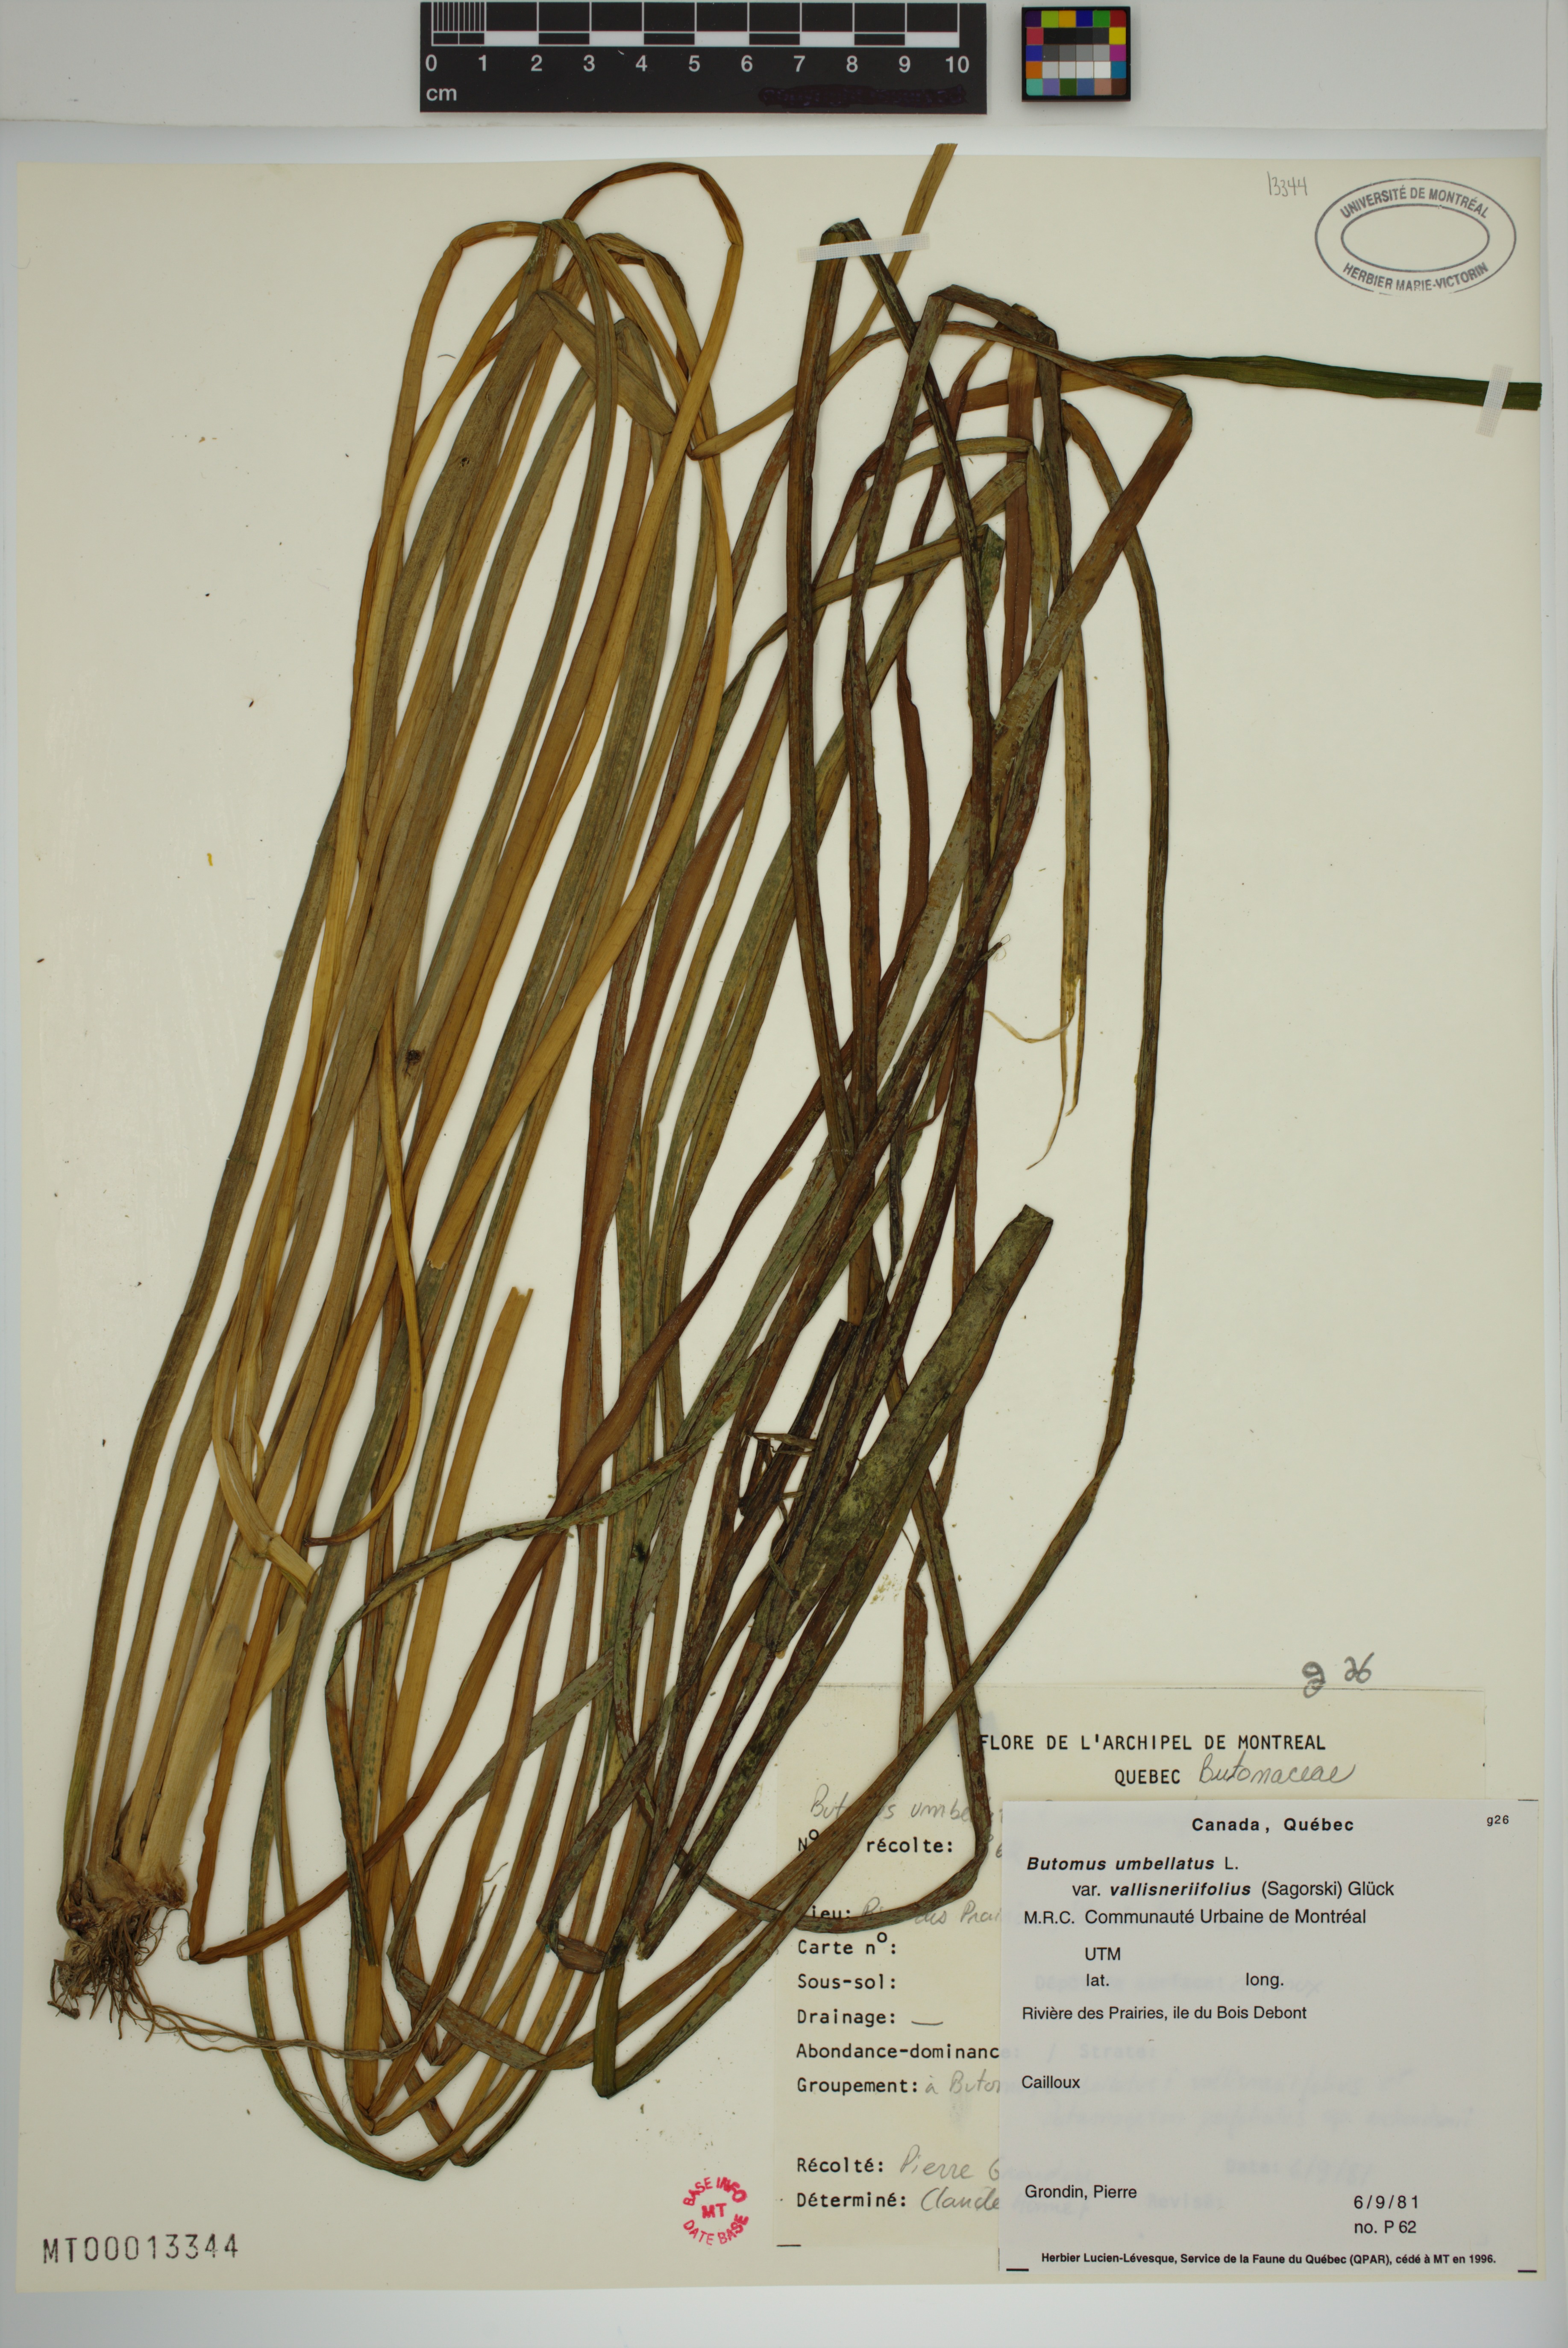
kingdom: Plantae
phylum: Tracheophyta
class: Liliopsida
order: Alismatales
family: Butomaceae
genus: Butomus
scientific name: Butomus umbellatus
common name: Flowering-rush
